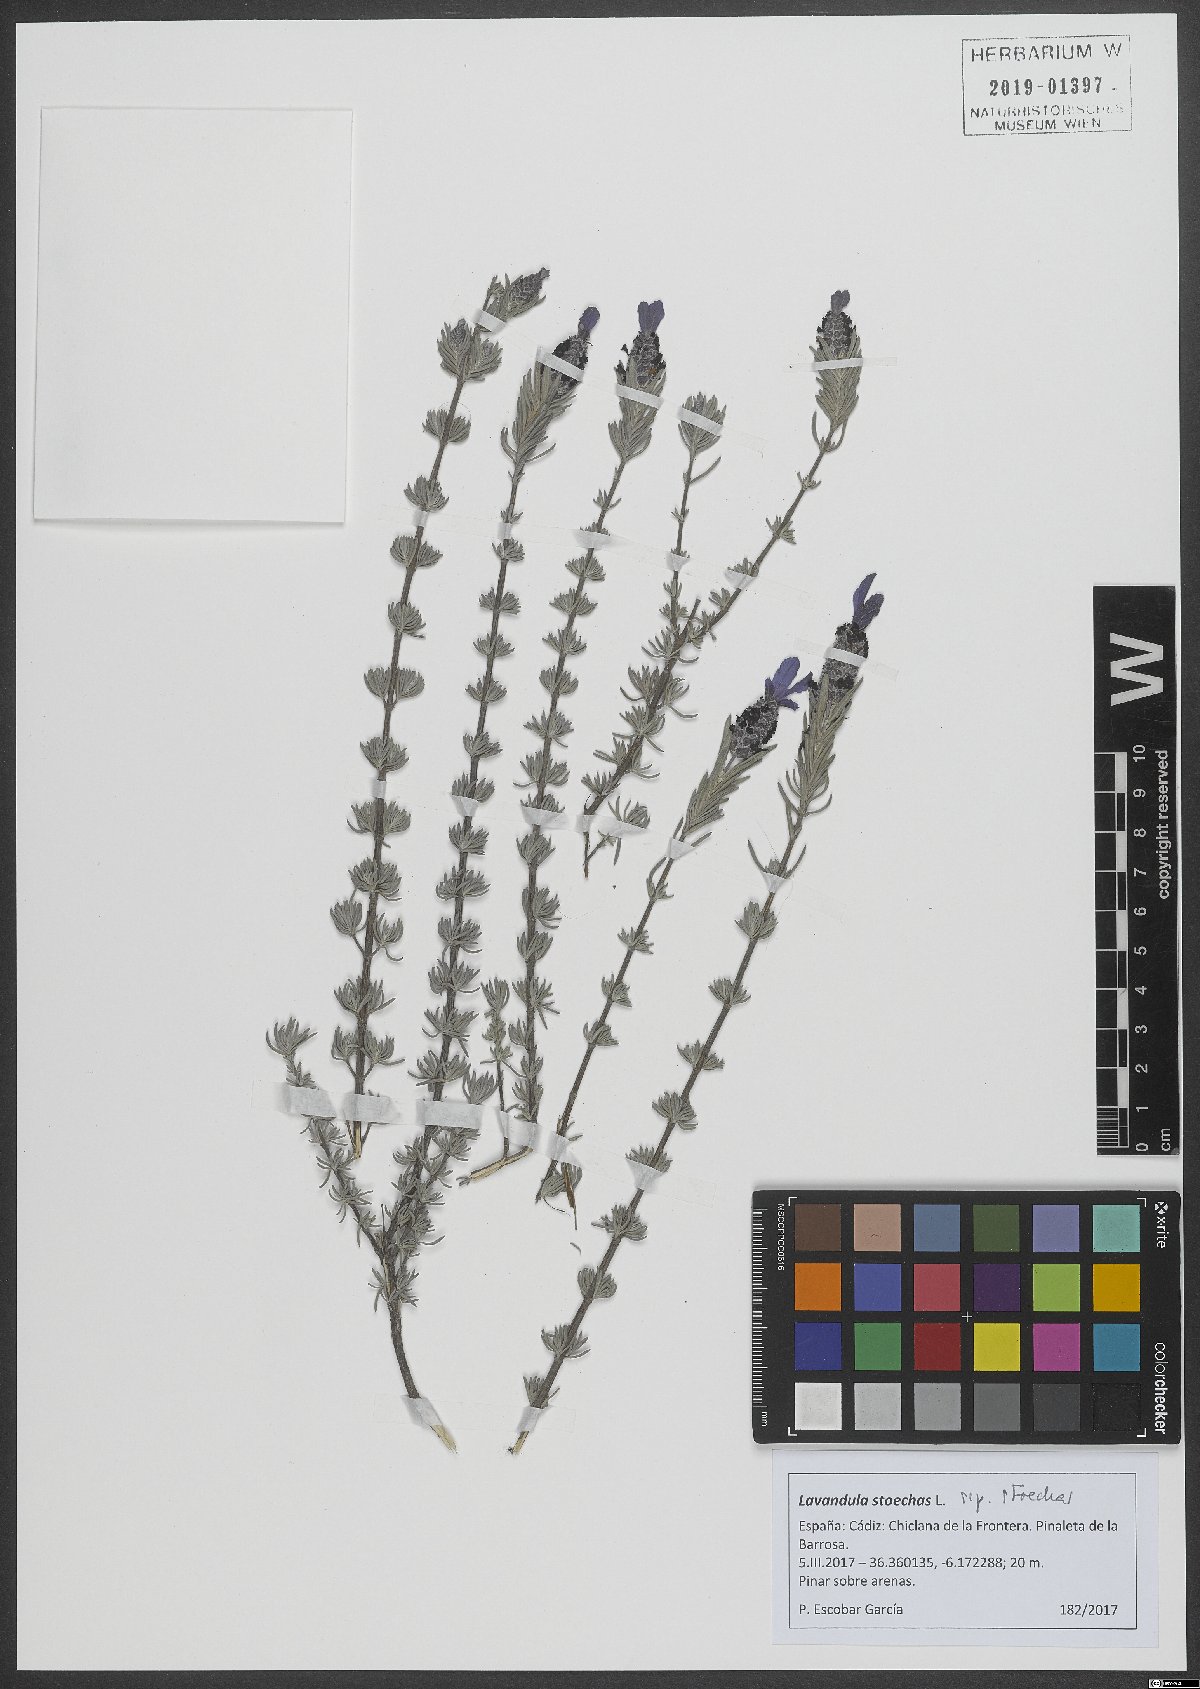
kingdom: Plantae
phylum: Tracheophyta
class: Magnoliopsida
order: Lamiales
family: Lamiaceae
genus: Lavandula
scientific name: Lavandula stoechas
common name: French lavender
